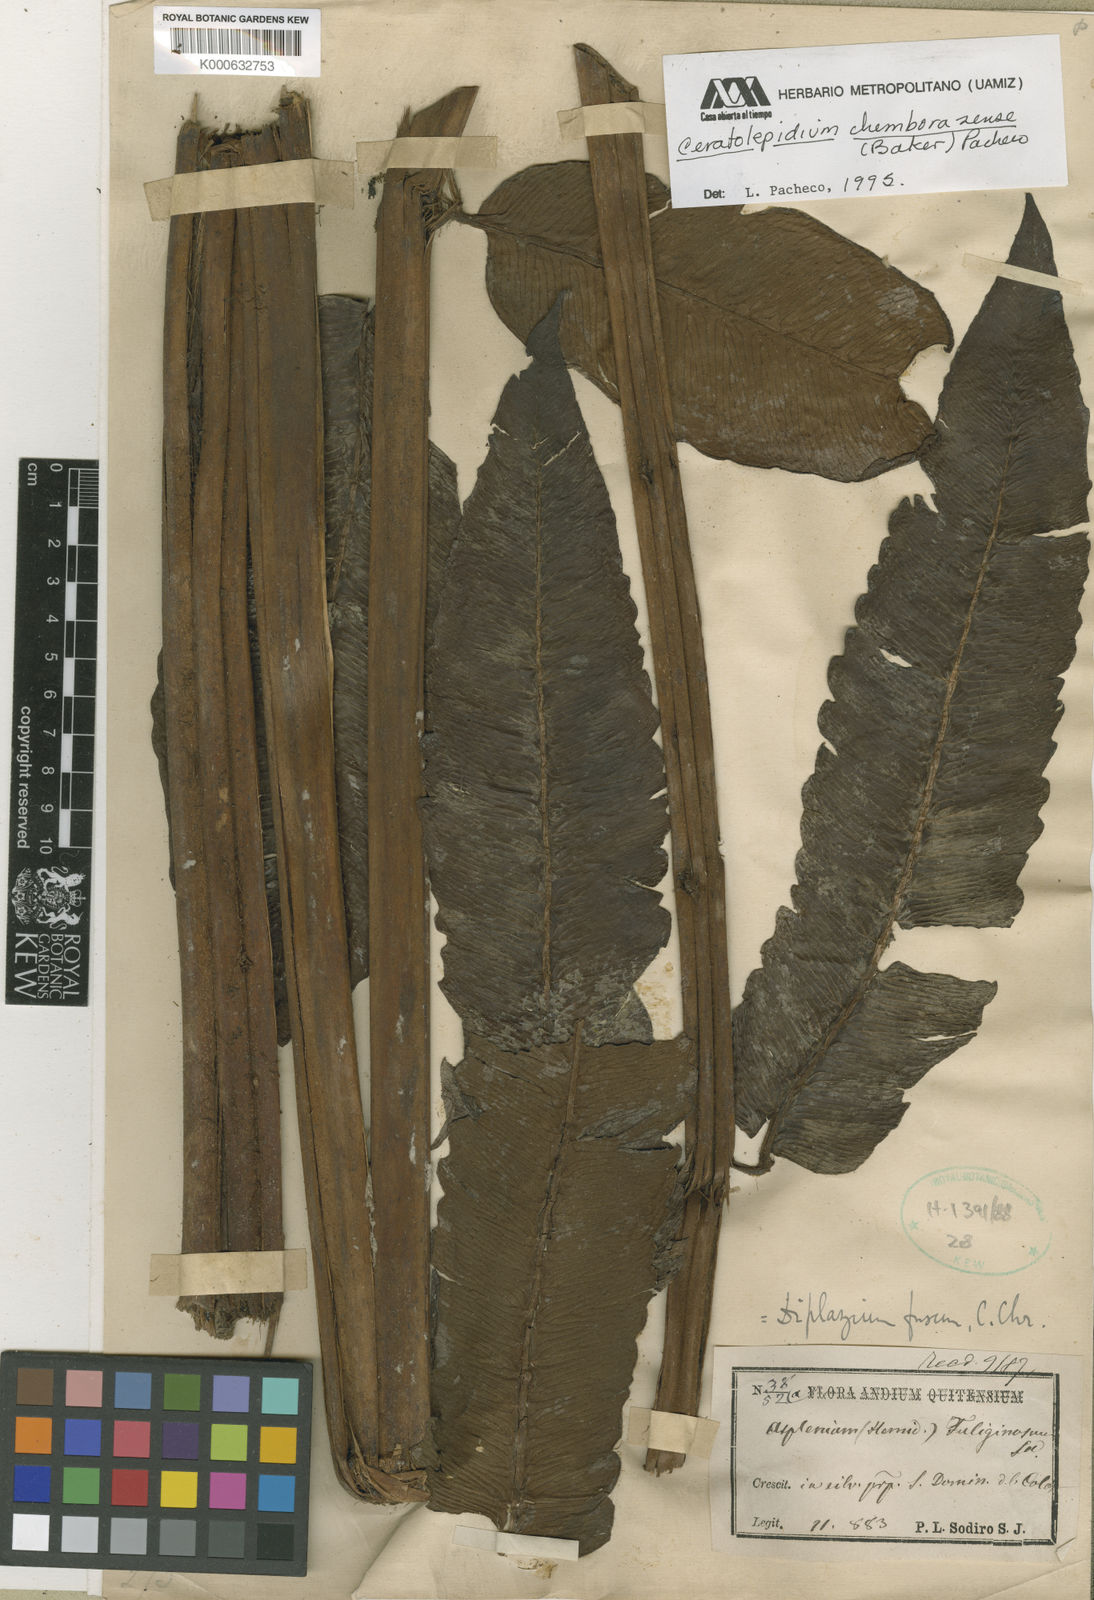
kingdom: Plantae
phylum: Tracheophyta
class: Polypodiopsida
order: Polypodiales
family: Athyriaceae
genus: Diplazium
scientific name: Diplazium chimborazense
